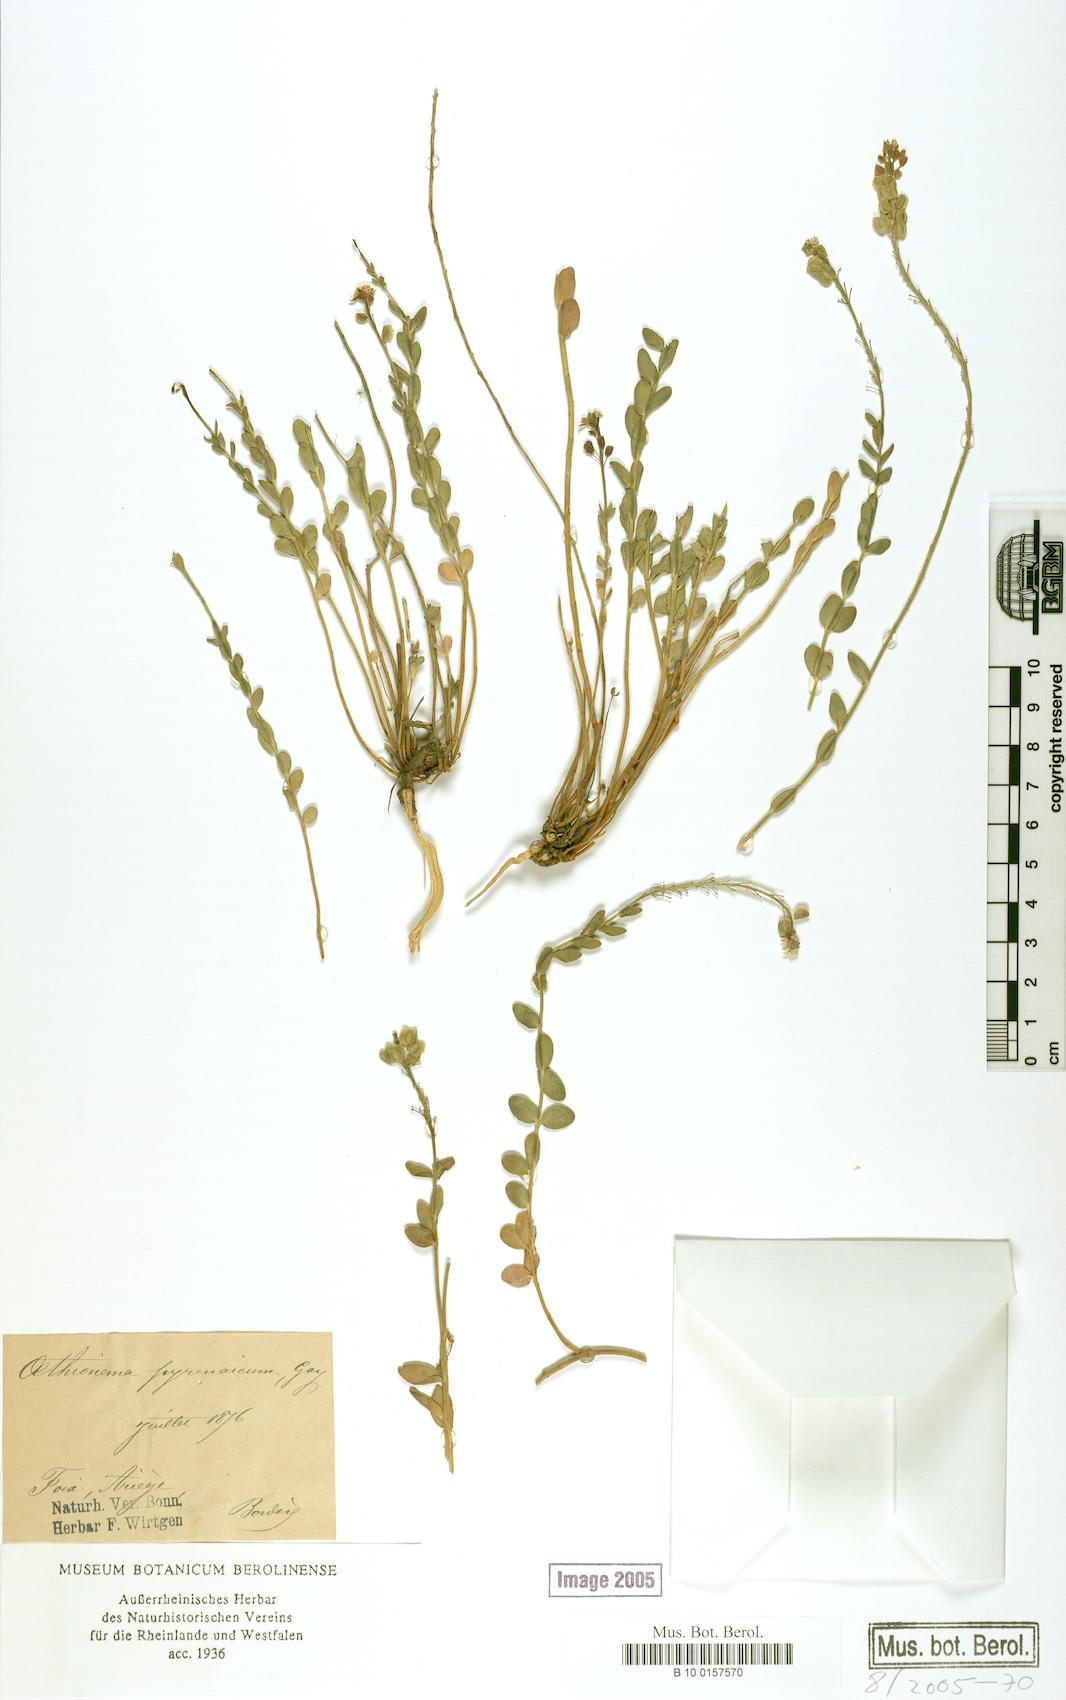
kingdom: Plantae
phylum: Tracheophyta
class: Magnoliopsida
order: Brassicales
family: Brassicaceae
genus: Aethionema
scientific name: Aethionema saxatile
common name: Burnt candytuft
